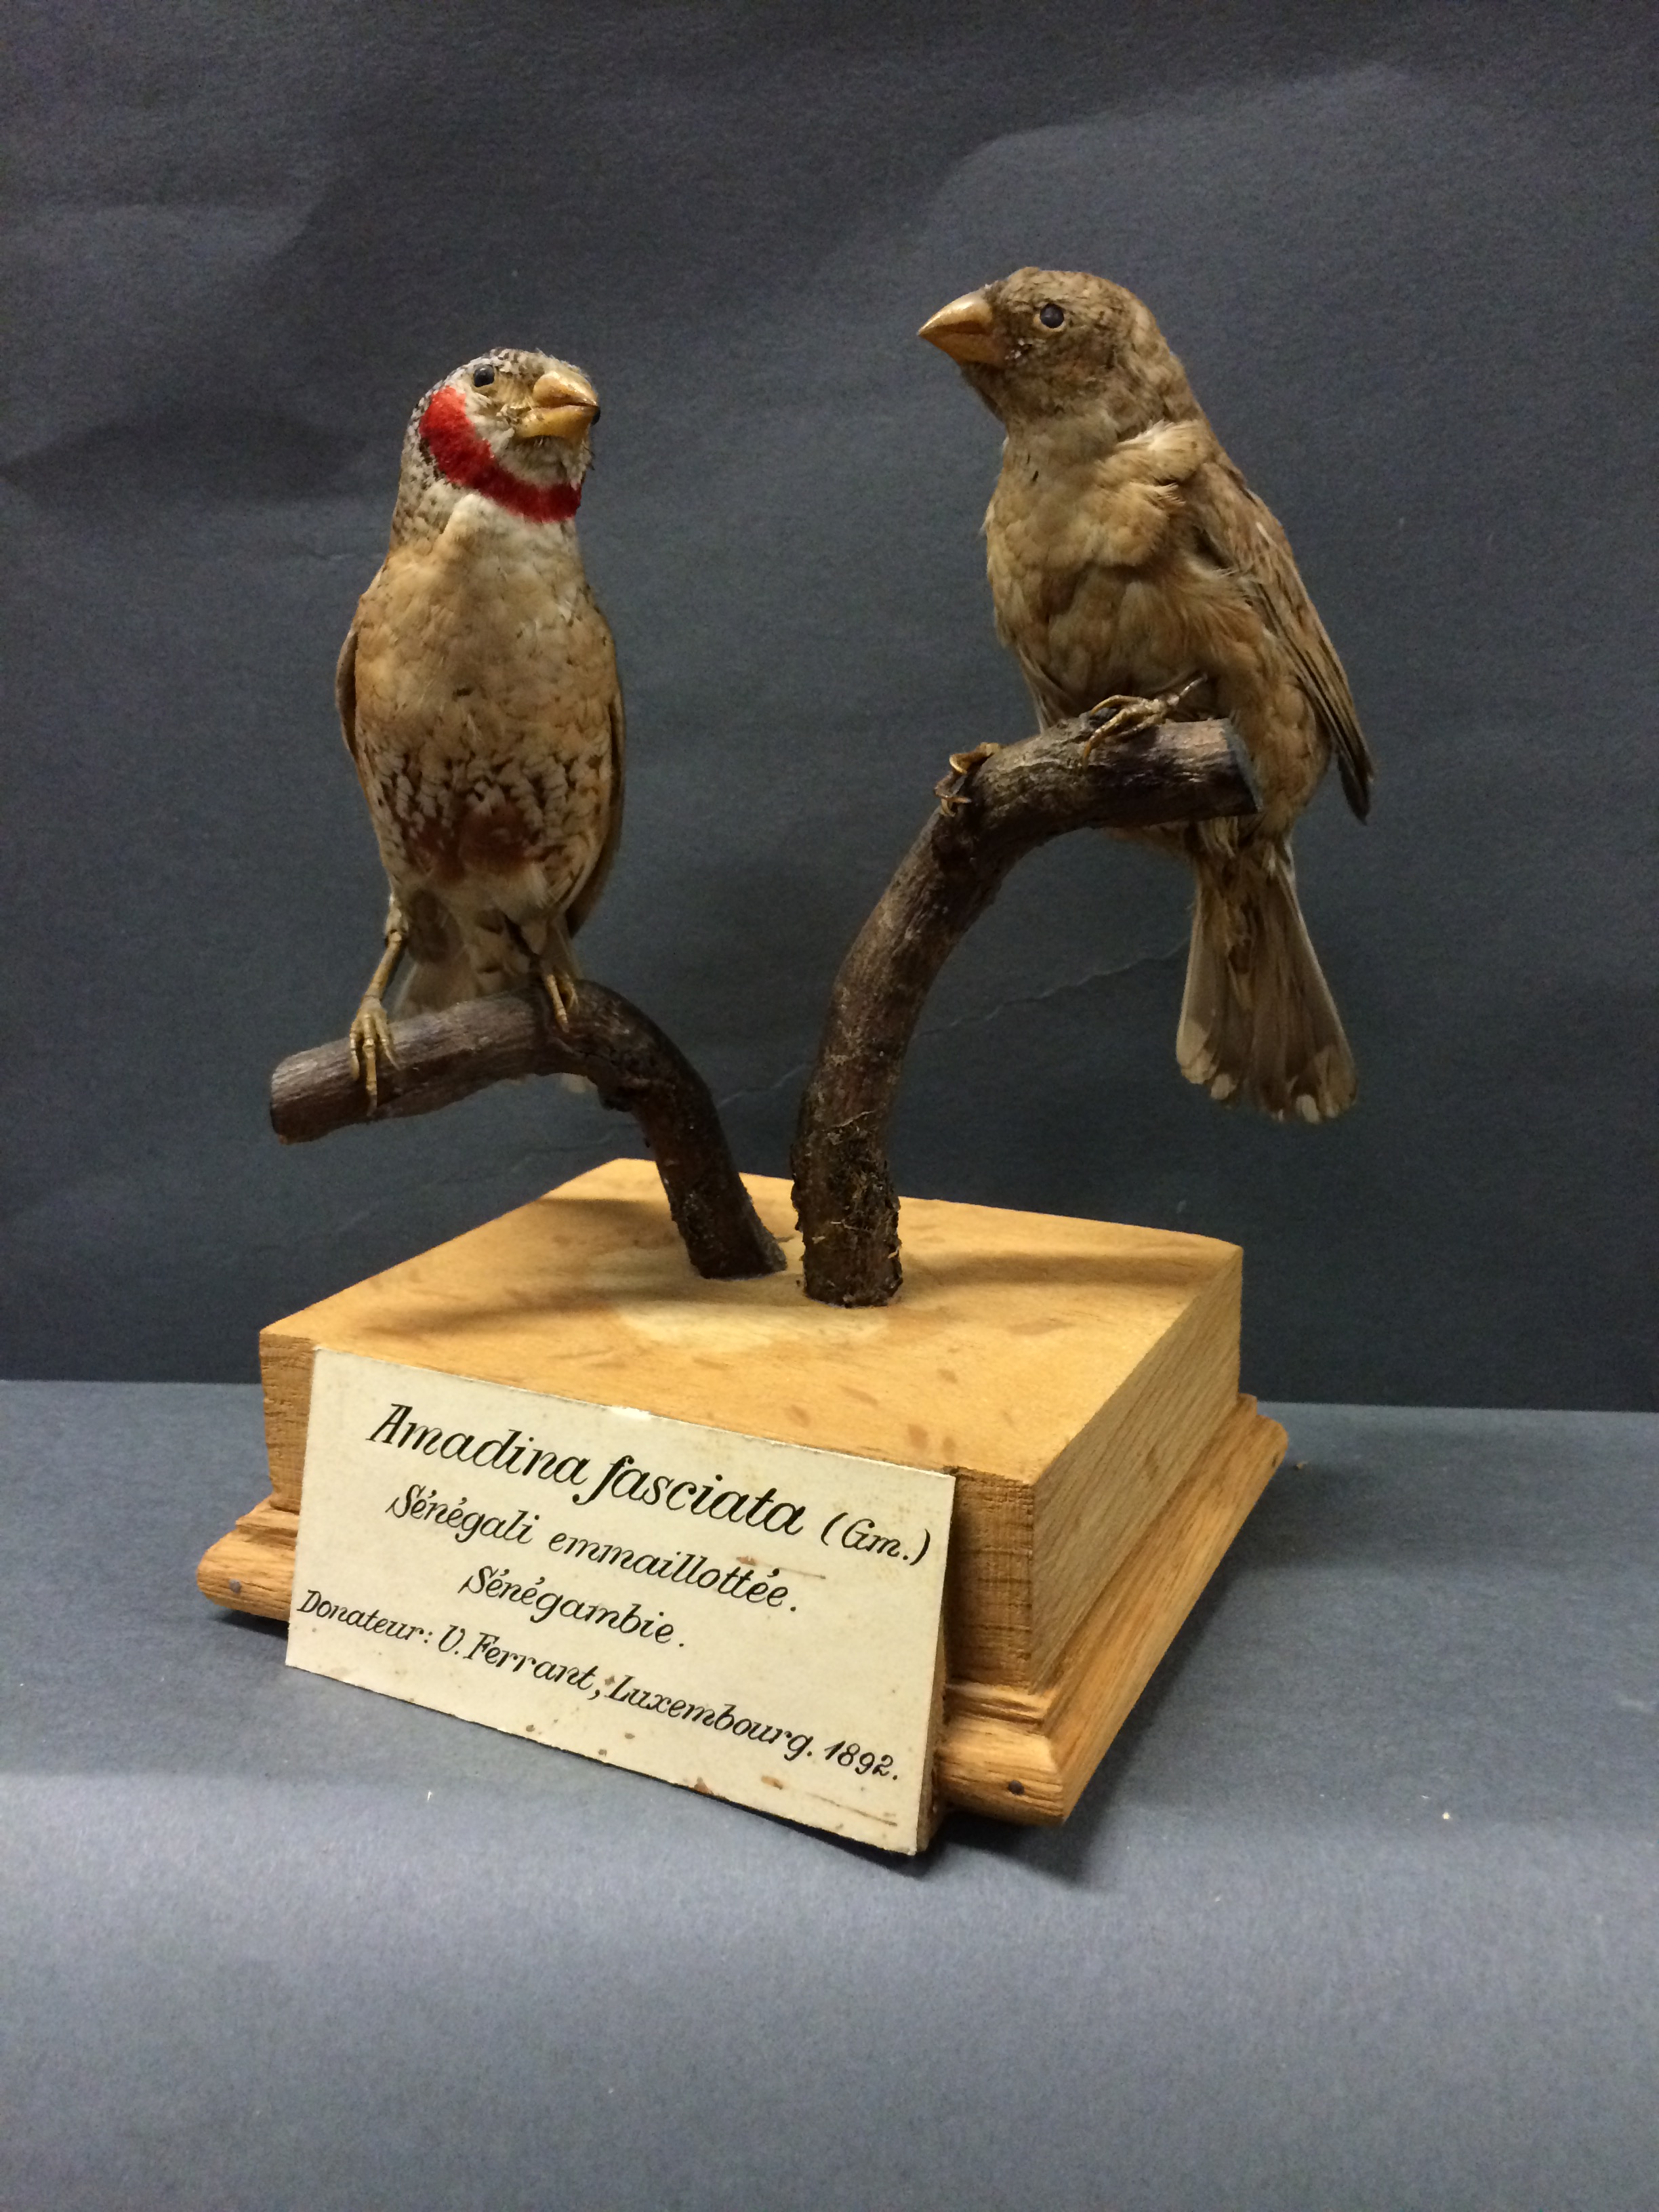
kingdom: Animalia
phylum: Chordata
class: Aves
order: Passeriformes
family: Estrildidae
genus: Amadina
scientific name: Amadina fasciata
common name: Cut-throat finch
